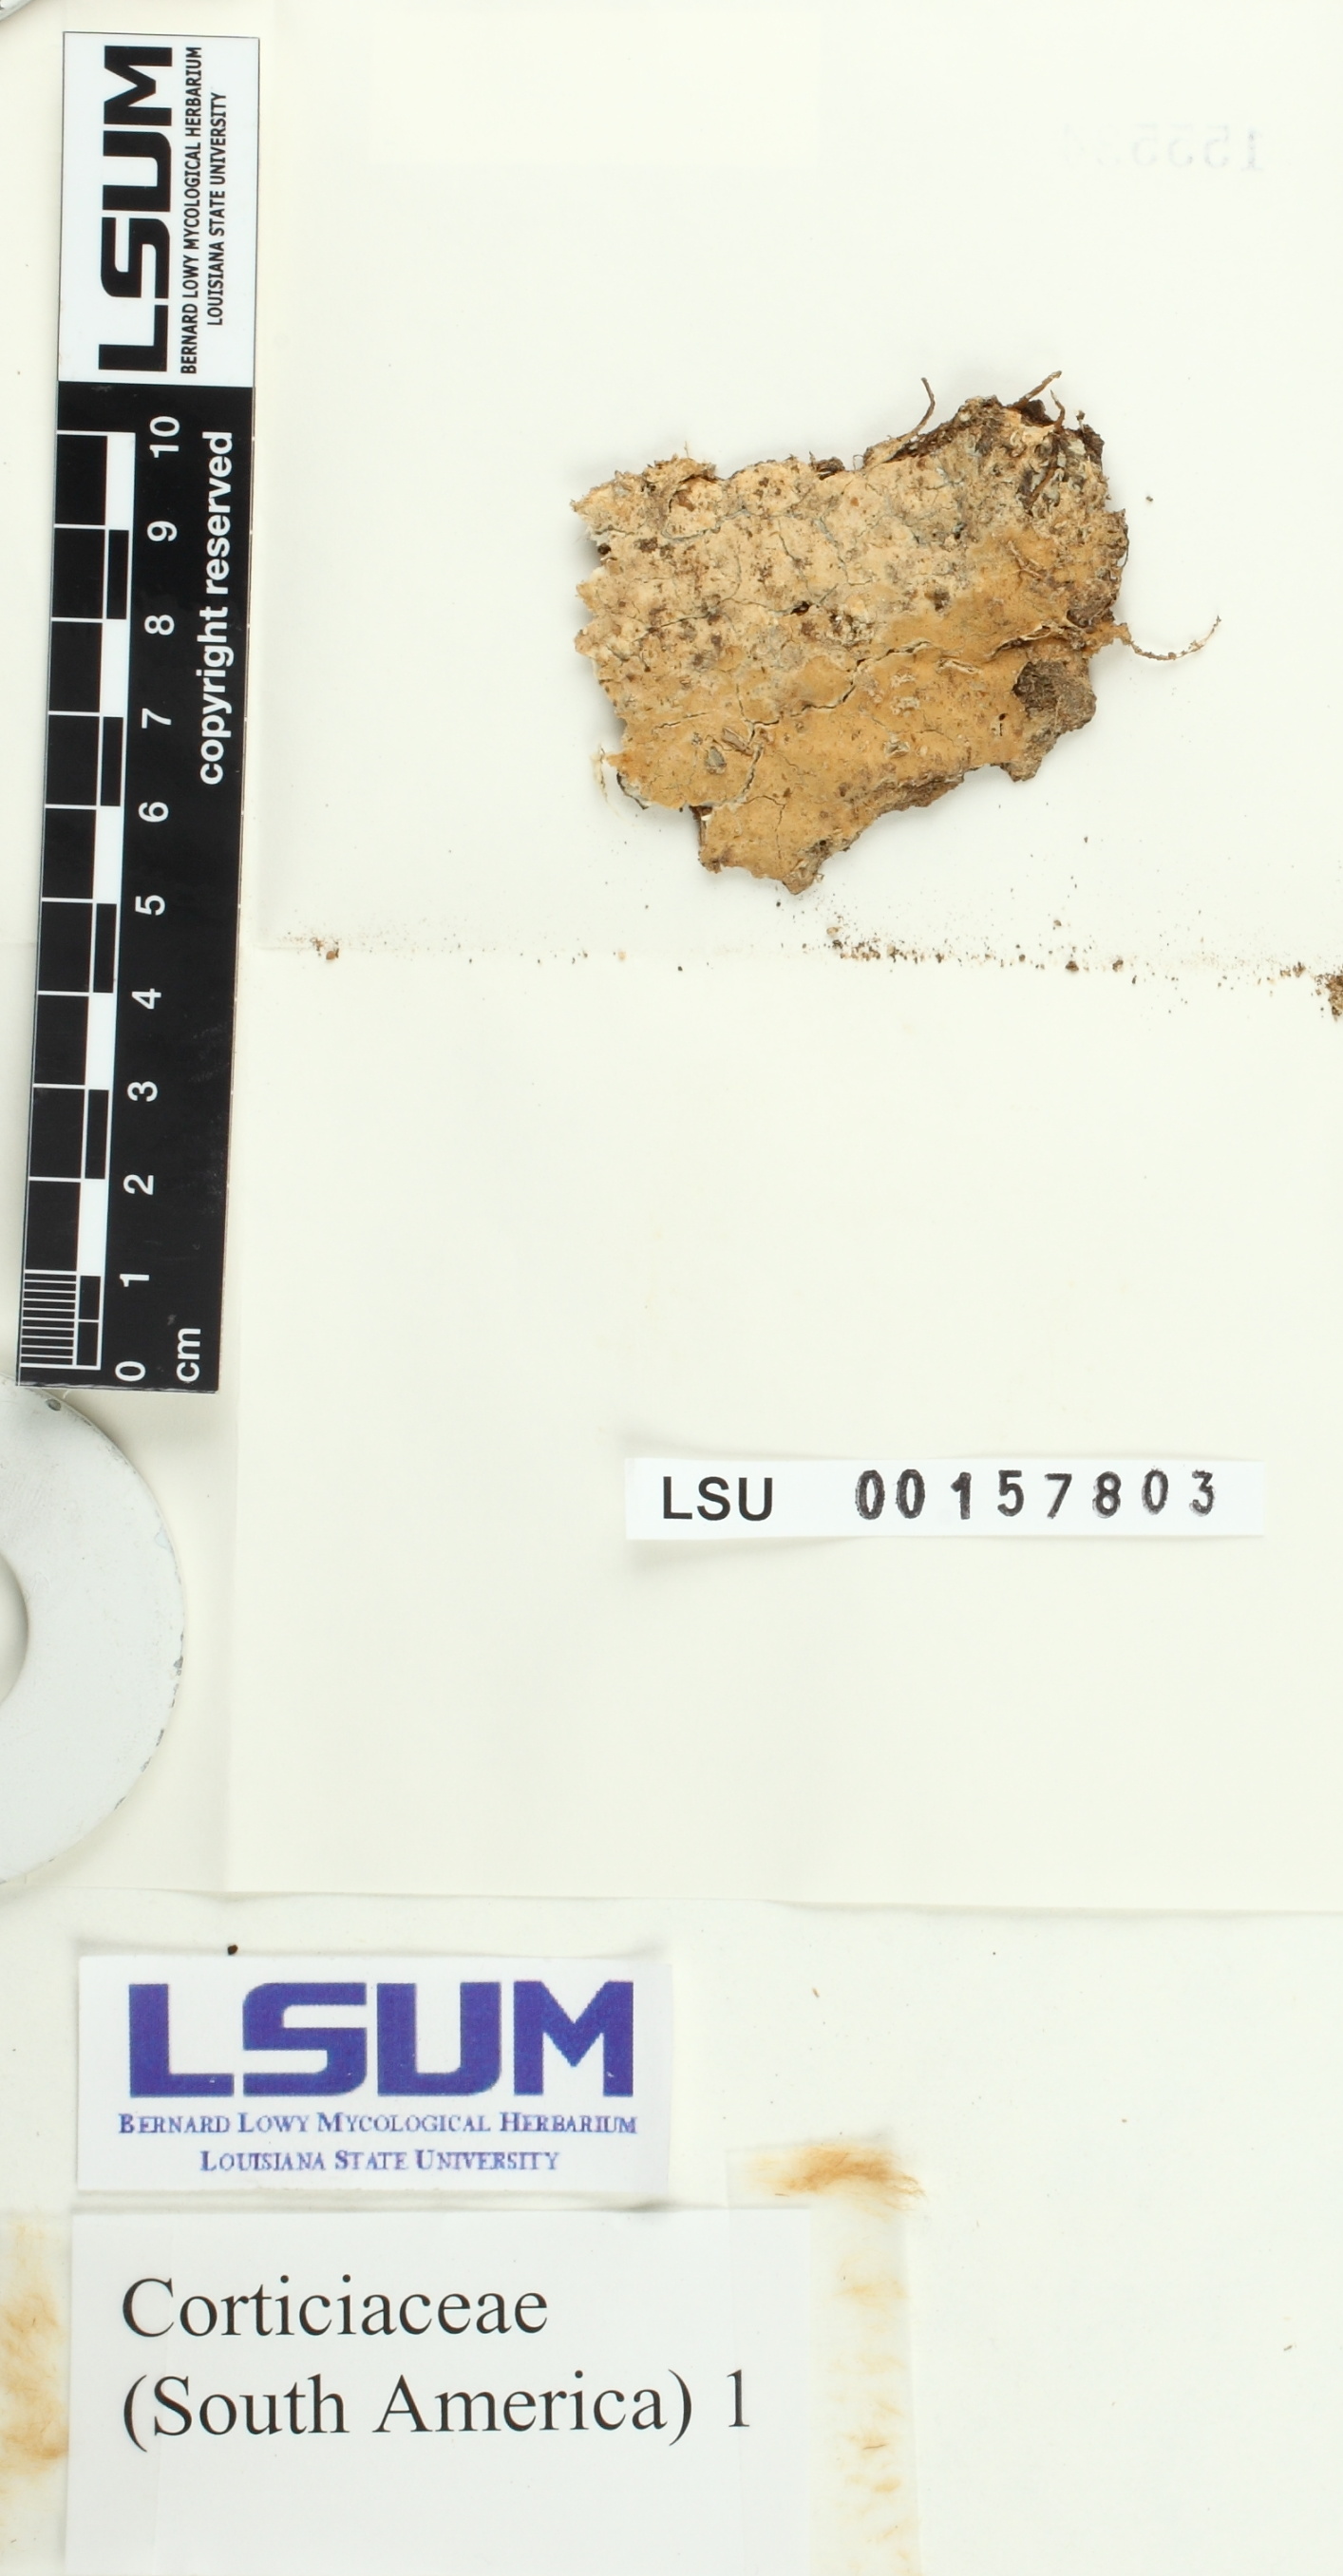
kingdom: Fungi
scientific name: Fungi
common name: Fungi
